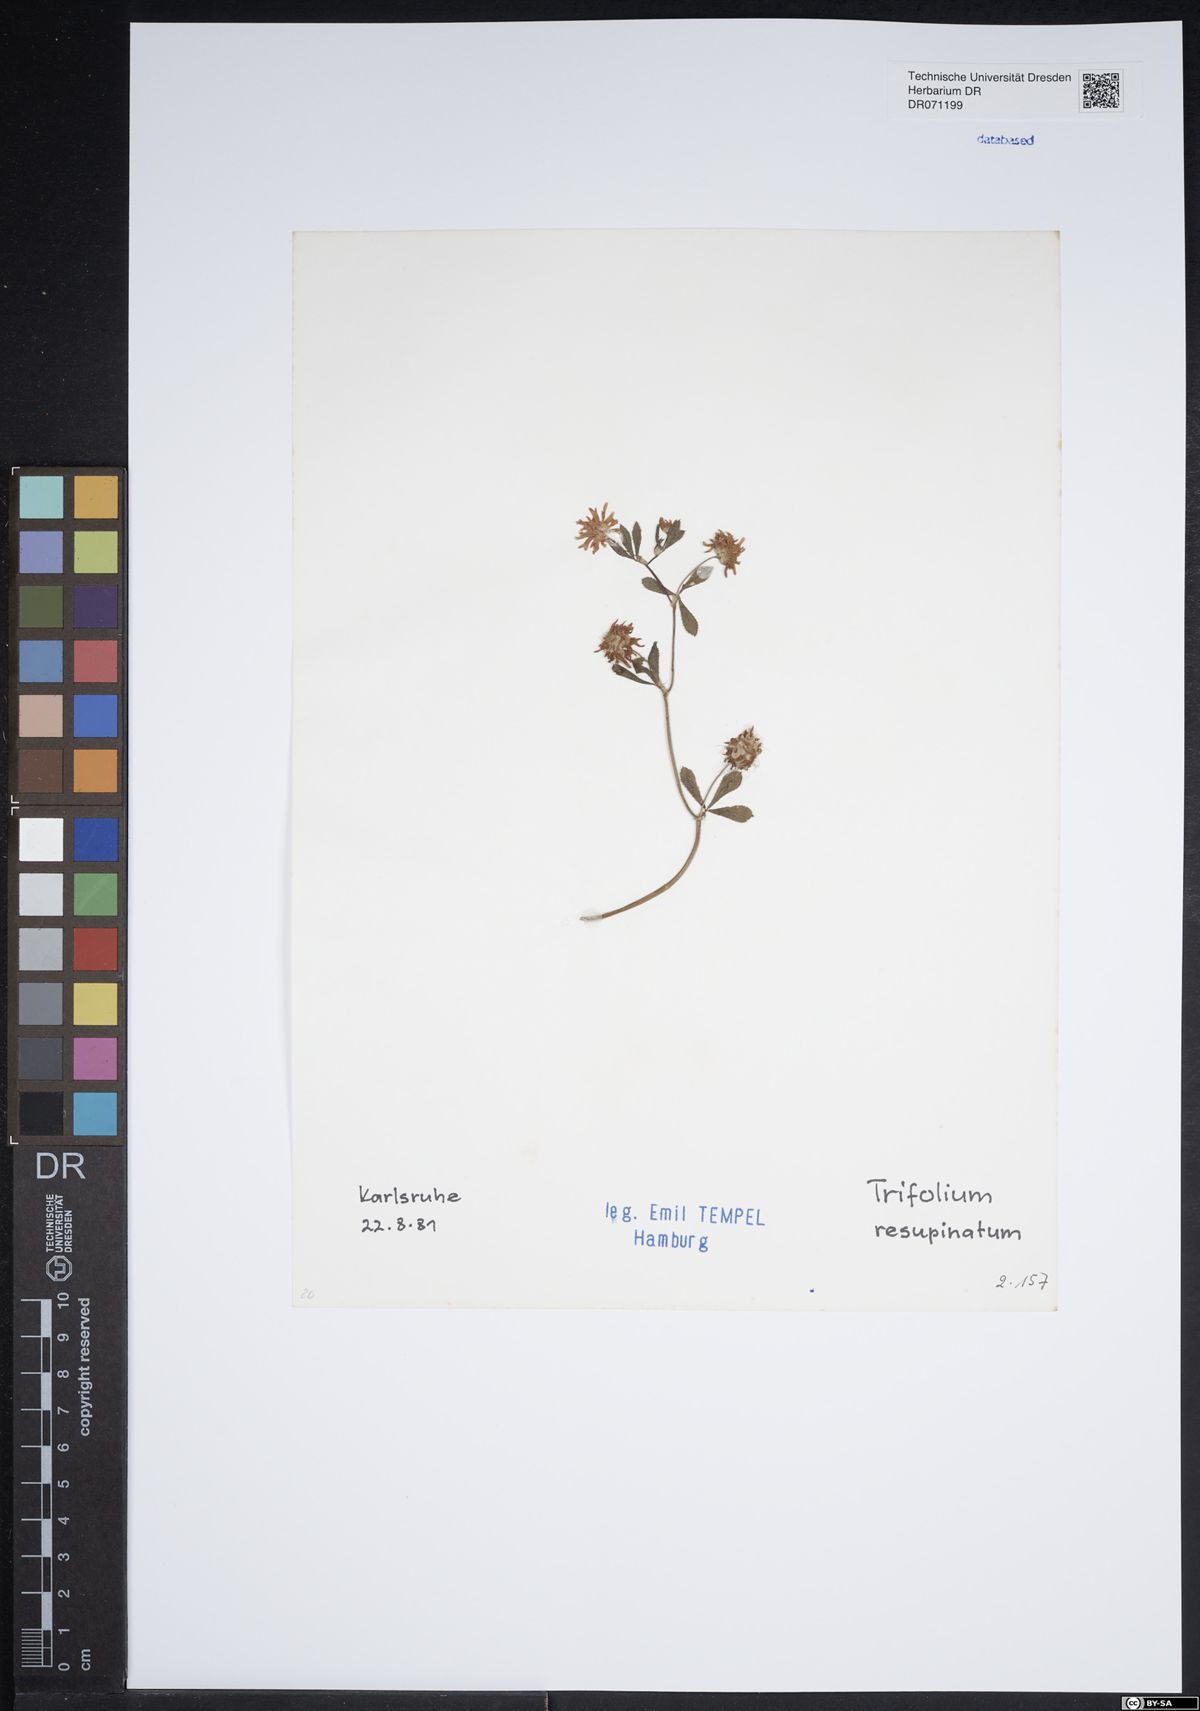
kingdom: Plantae
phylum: Tracheophyta
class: Magnoliopsida
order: Fabales
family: Fabaceae
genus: Trifolium
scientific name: Trifolium resupinatum
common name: Reversed clover
